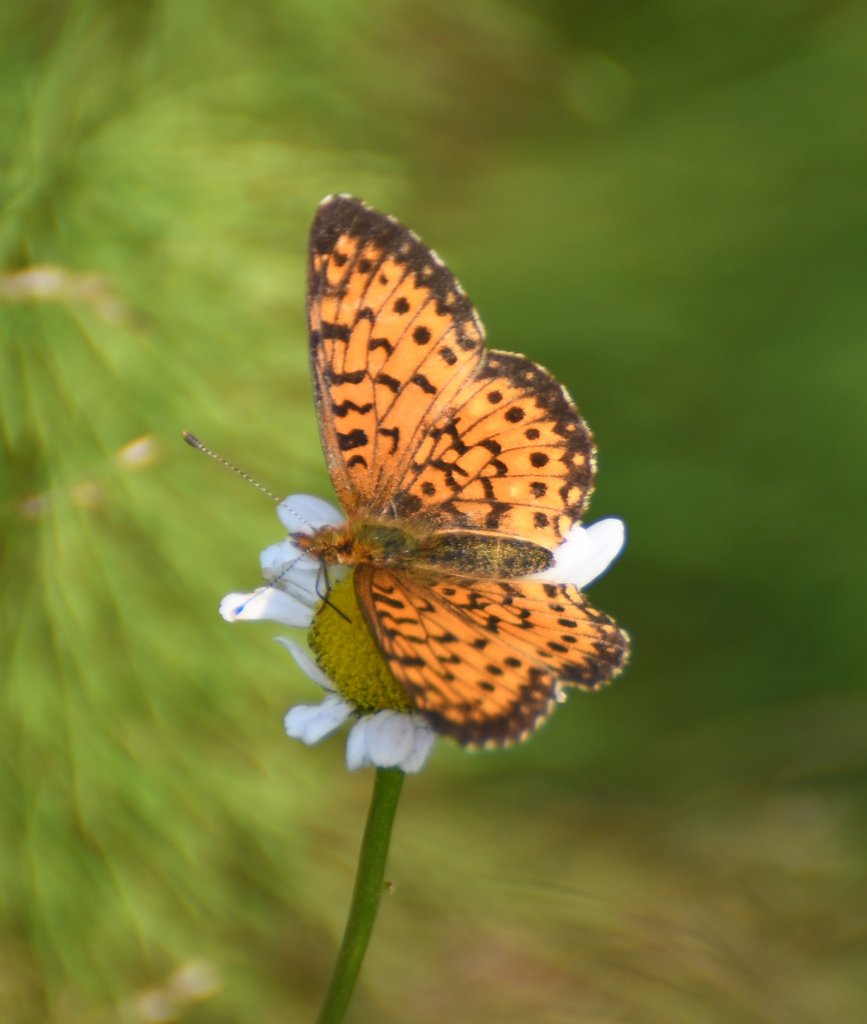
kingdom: Animalia
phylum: Arthropoda
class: Insecta
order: Lepidoptera
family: Nymphalidae
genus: Boloria
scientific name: Boloria selene
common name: Silver-bordered Fritillary
